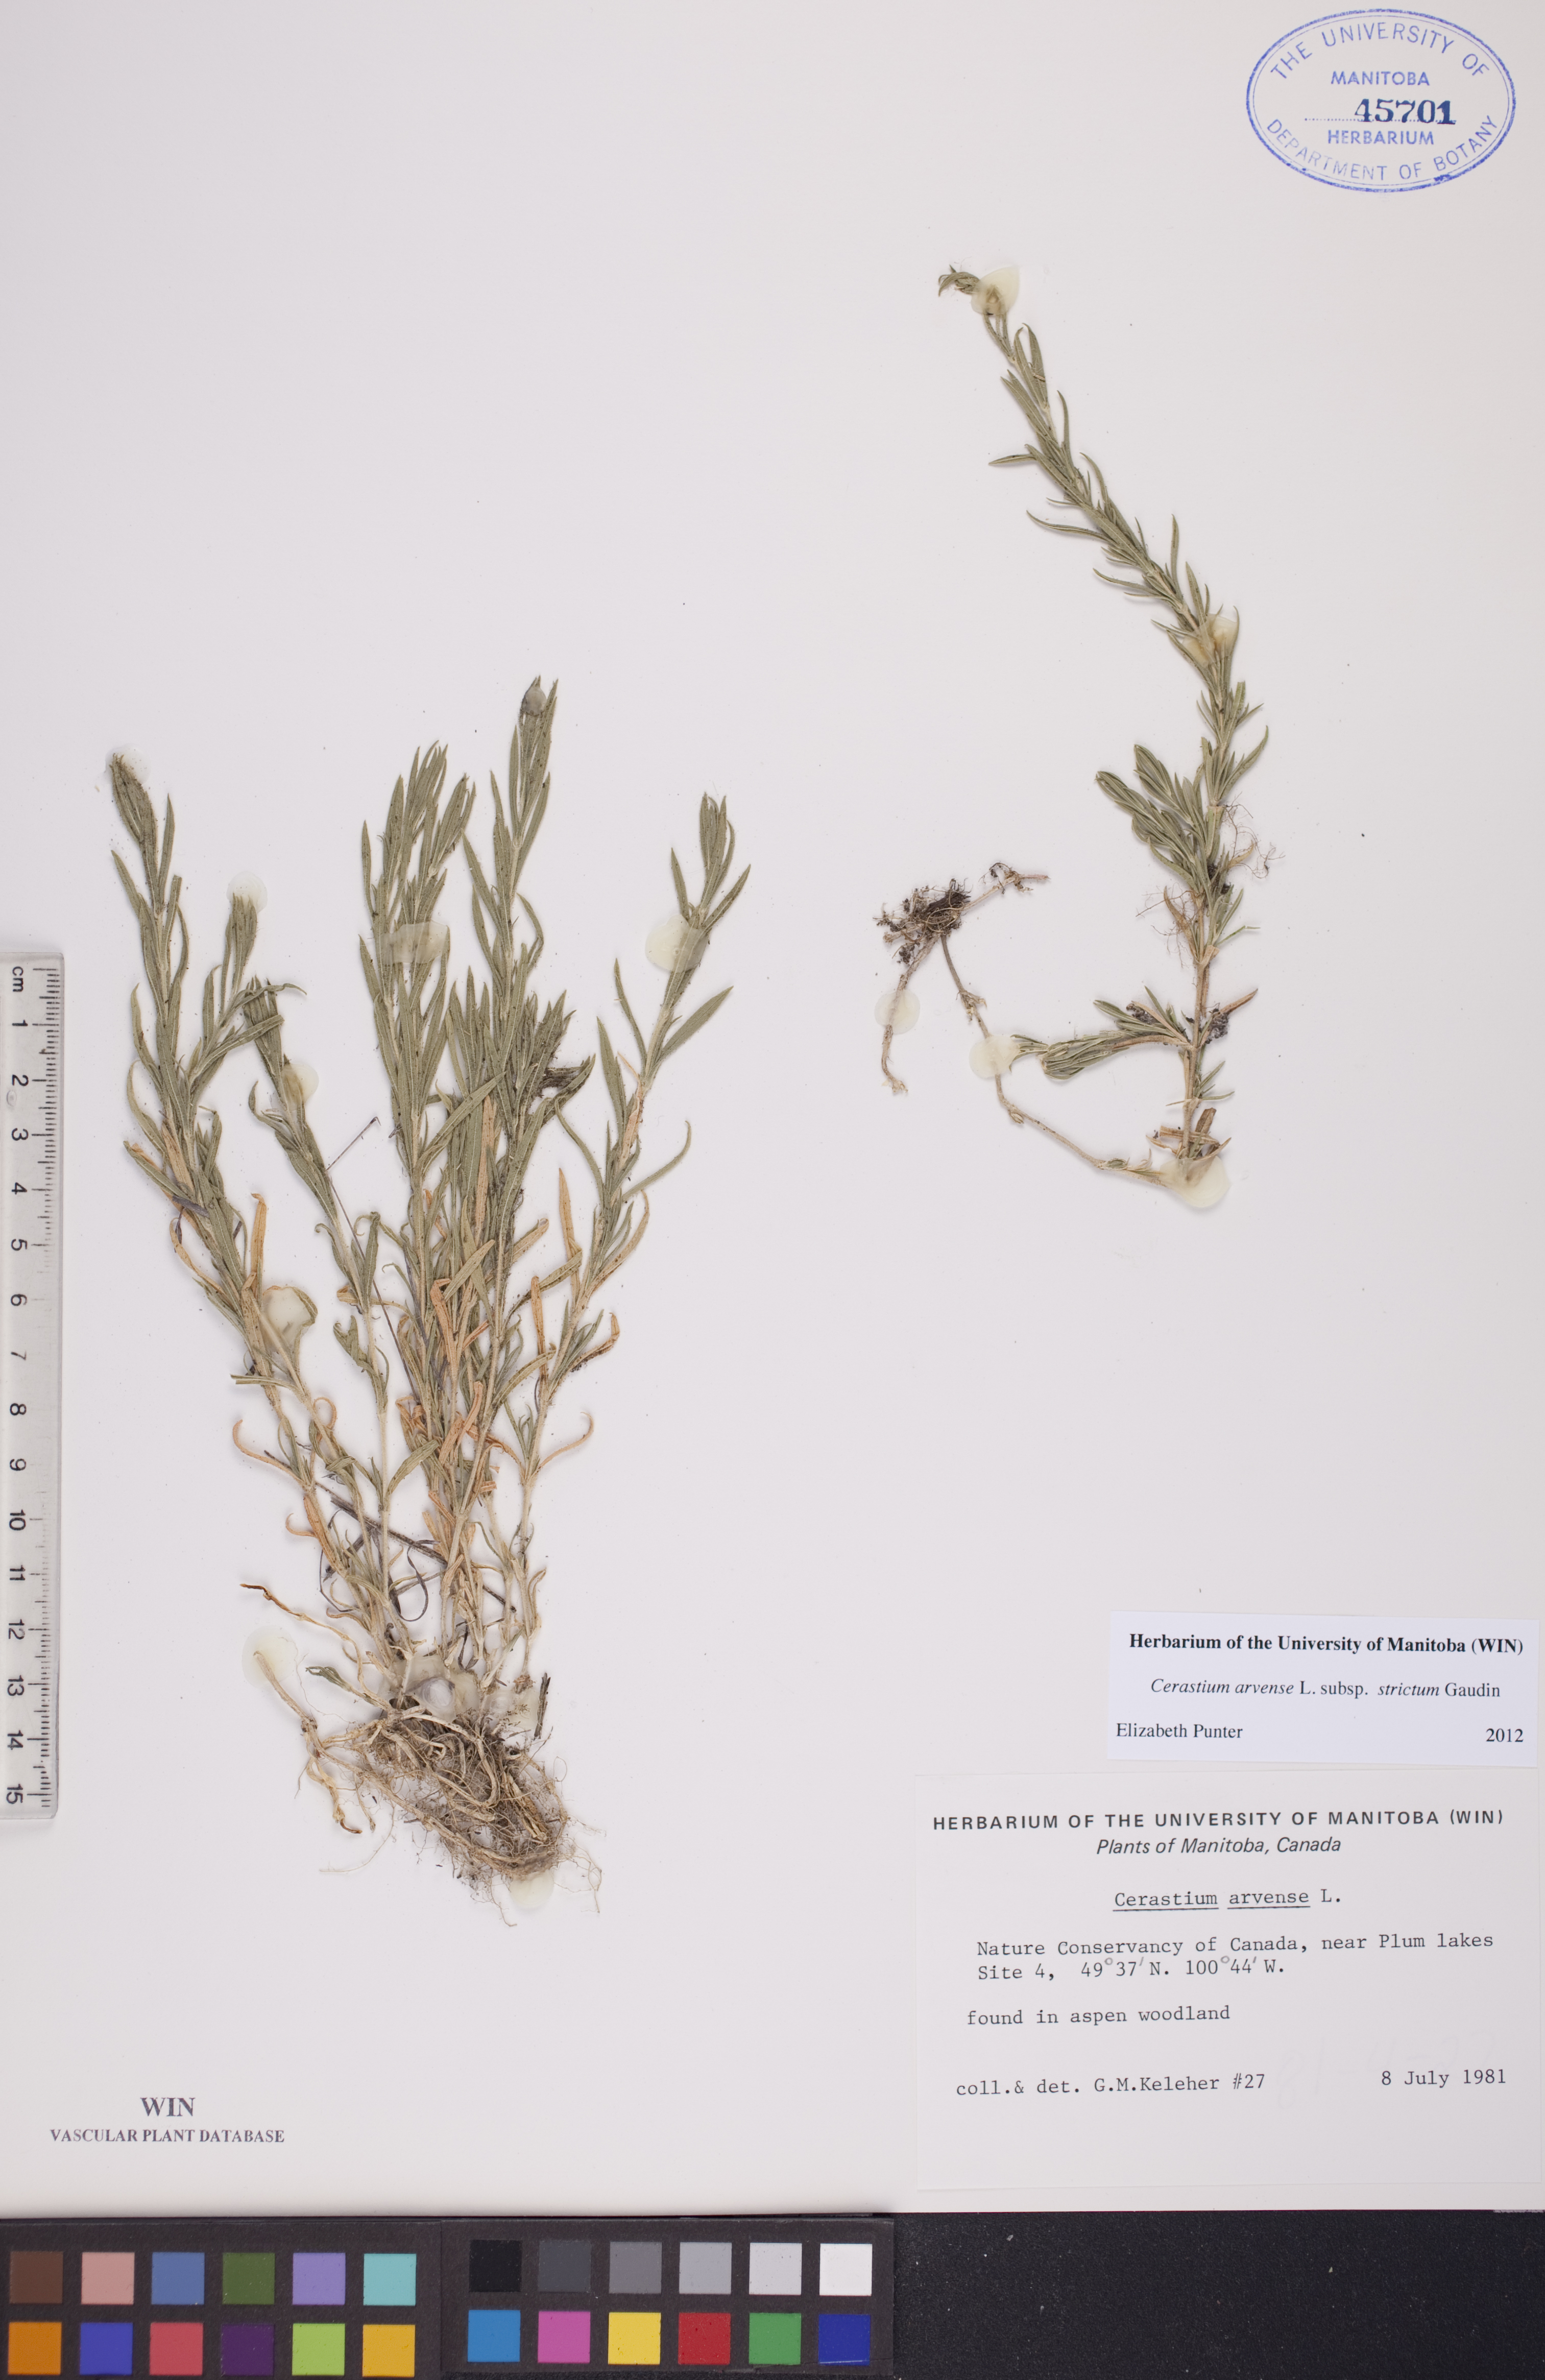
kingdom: Plantae
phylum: Tracheophyta
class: Magnoliopsida
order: Caryophyllales
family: Caryophyllaceae
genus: Cerastium
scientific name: Cerastium elongatum
